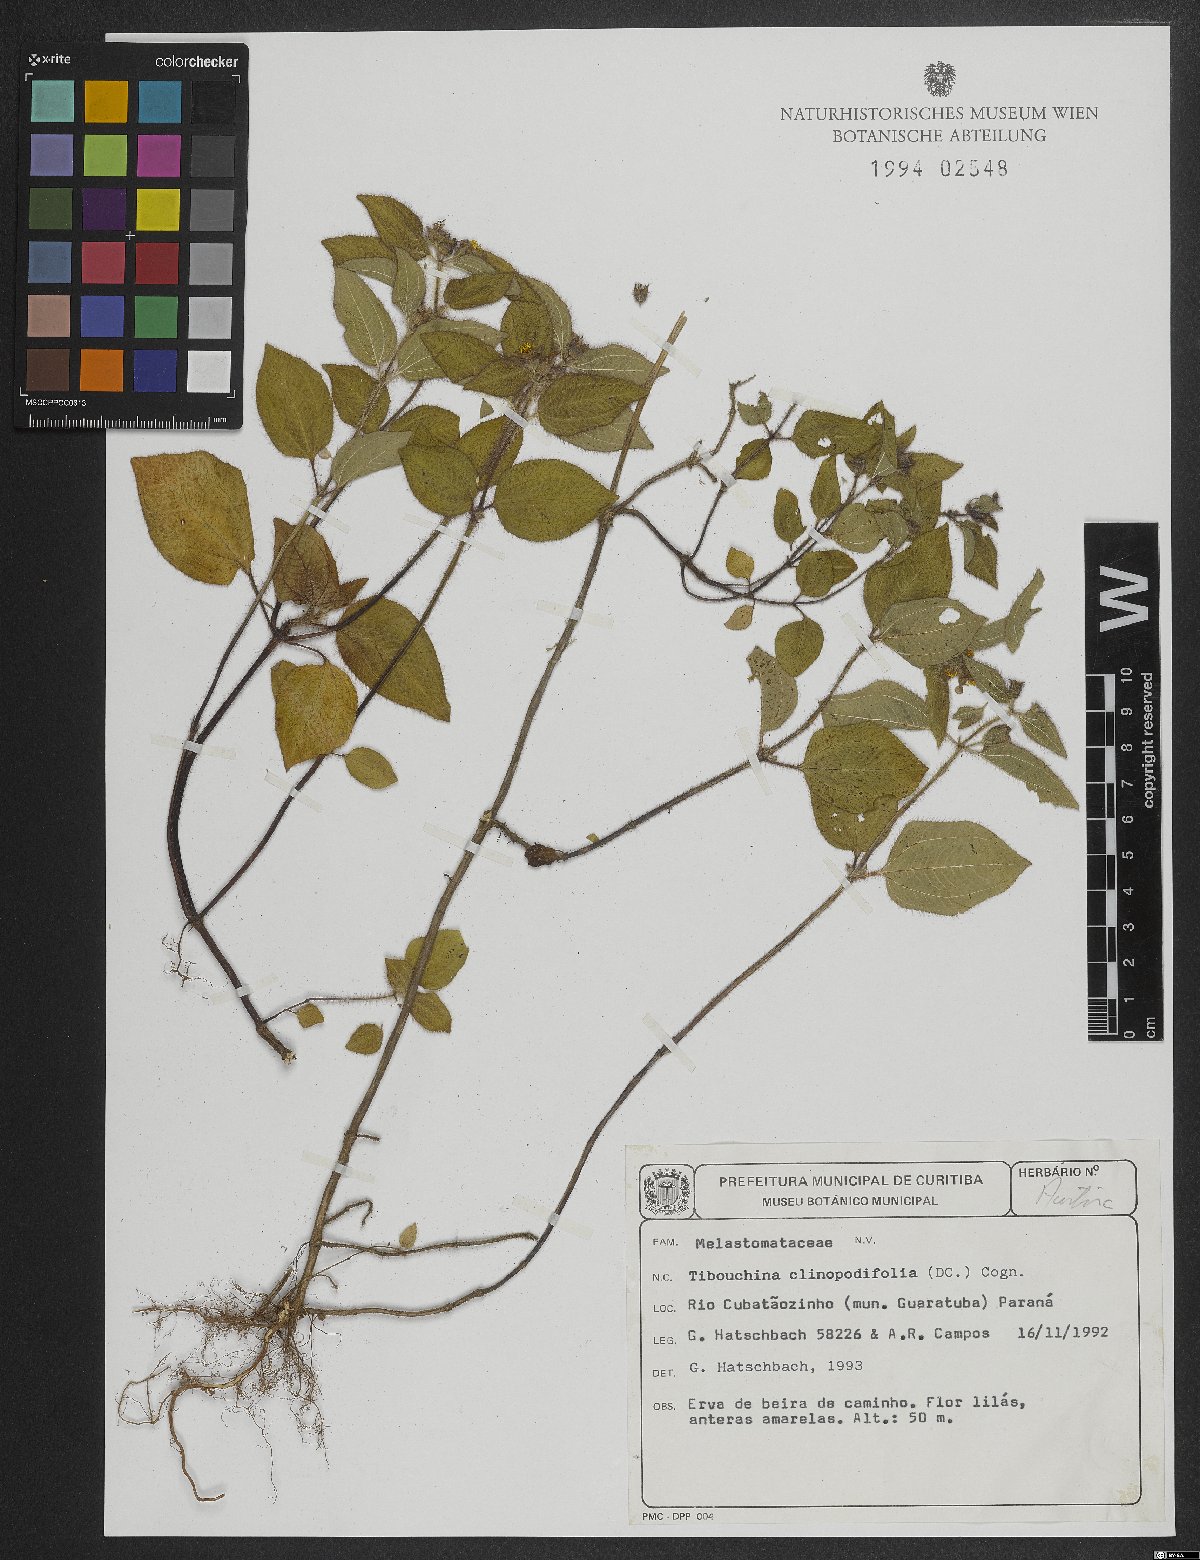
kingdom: Plantae
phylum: Tracheophyta
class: Magnoliopsida
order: Myrtales
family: Melastomataceae
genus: Chaetogastra
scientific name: Chaetogastra clinopodifolia
